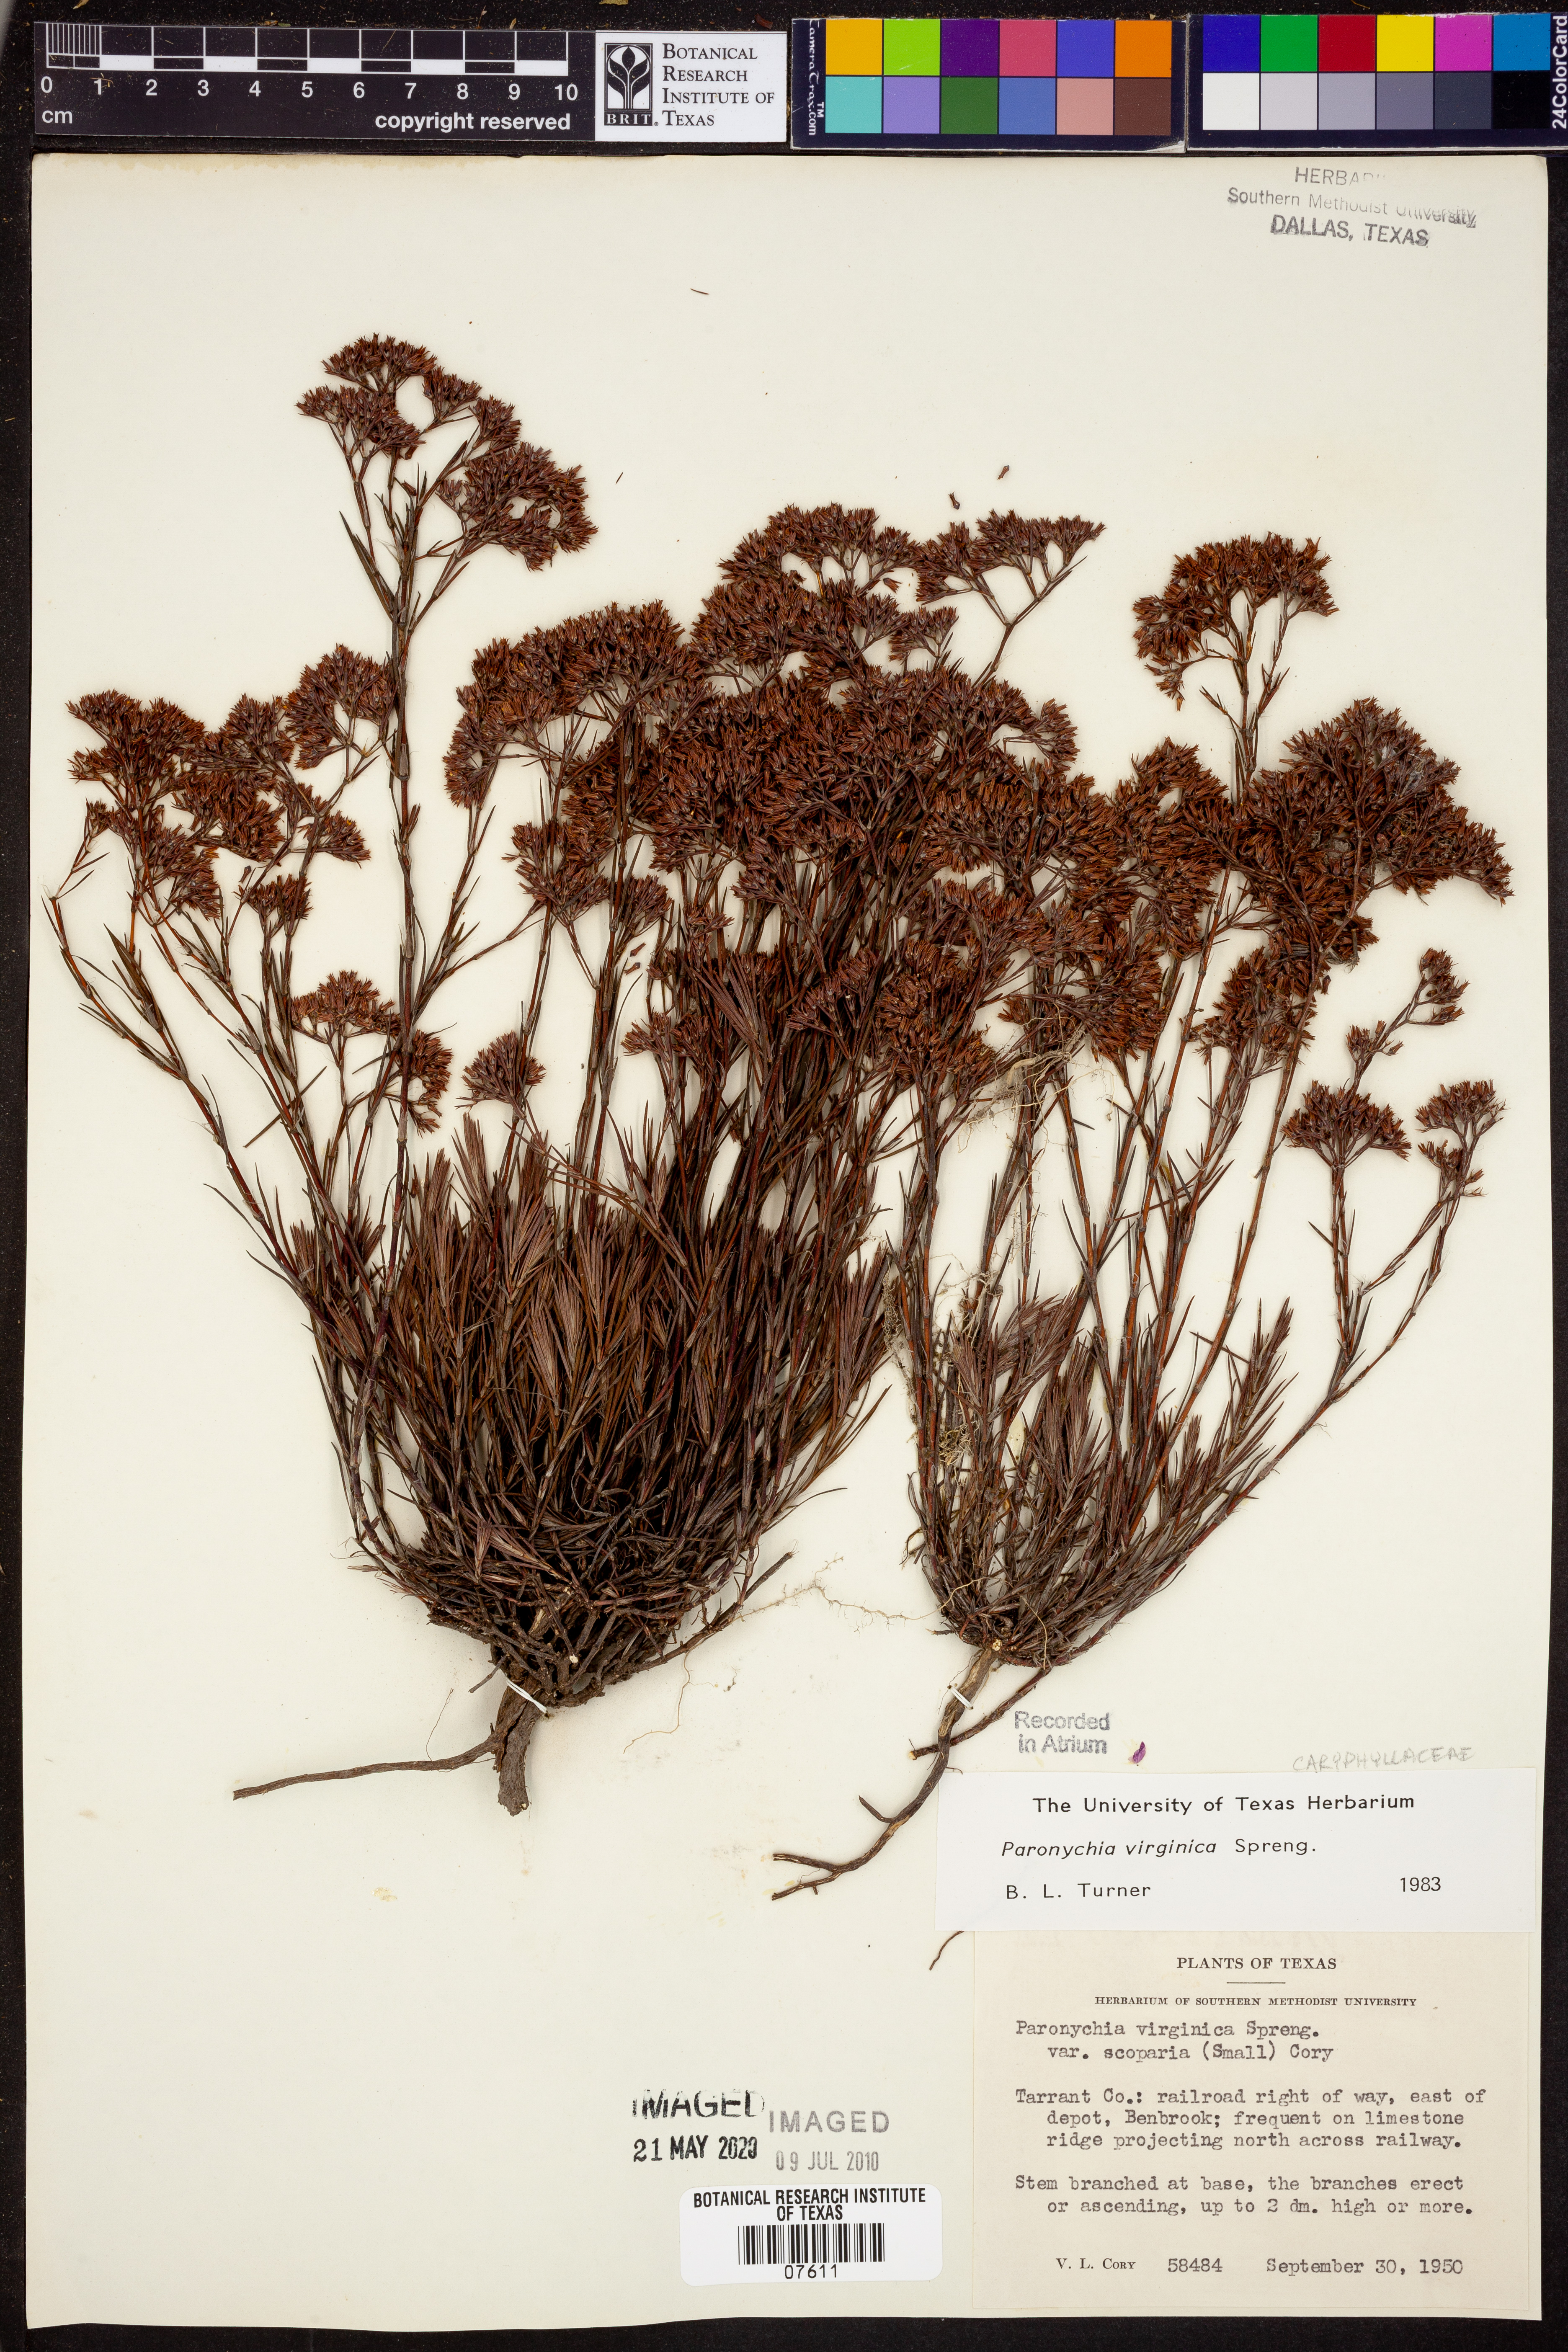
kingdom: Plantae
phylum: Tracheophyta
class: Magnoliopsida
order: Caryophyllales
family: Caryophyllaceae
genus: Paronychia
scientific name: Paronychia virginica
